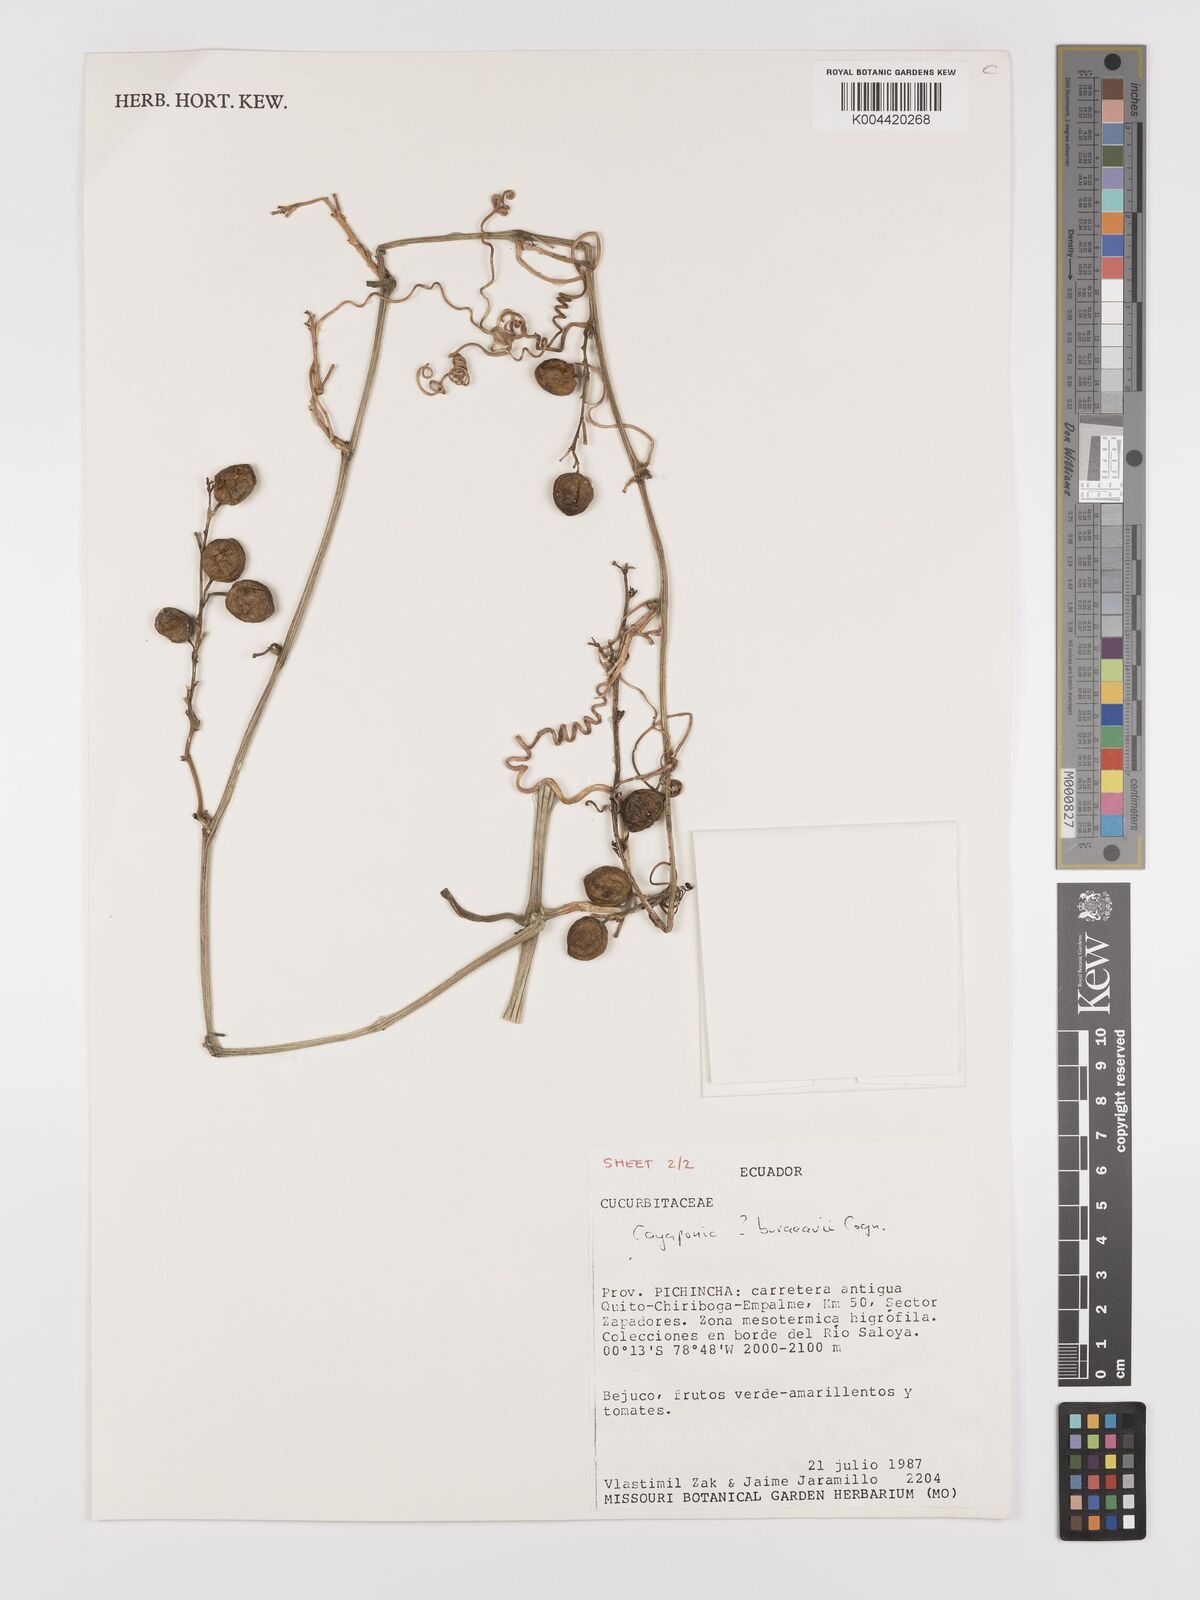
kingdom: Plantae
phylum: Tracheophyta
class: Magnoliopsida
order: Cucurbitales
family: Cucurbitaceae
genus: Cayaponia
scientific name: Cayaponia buraeavii
